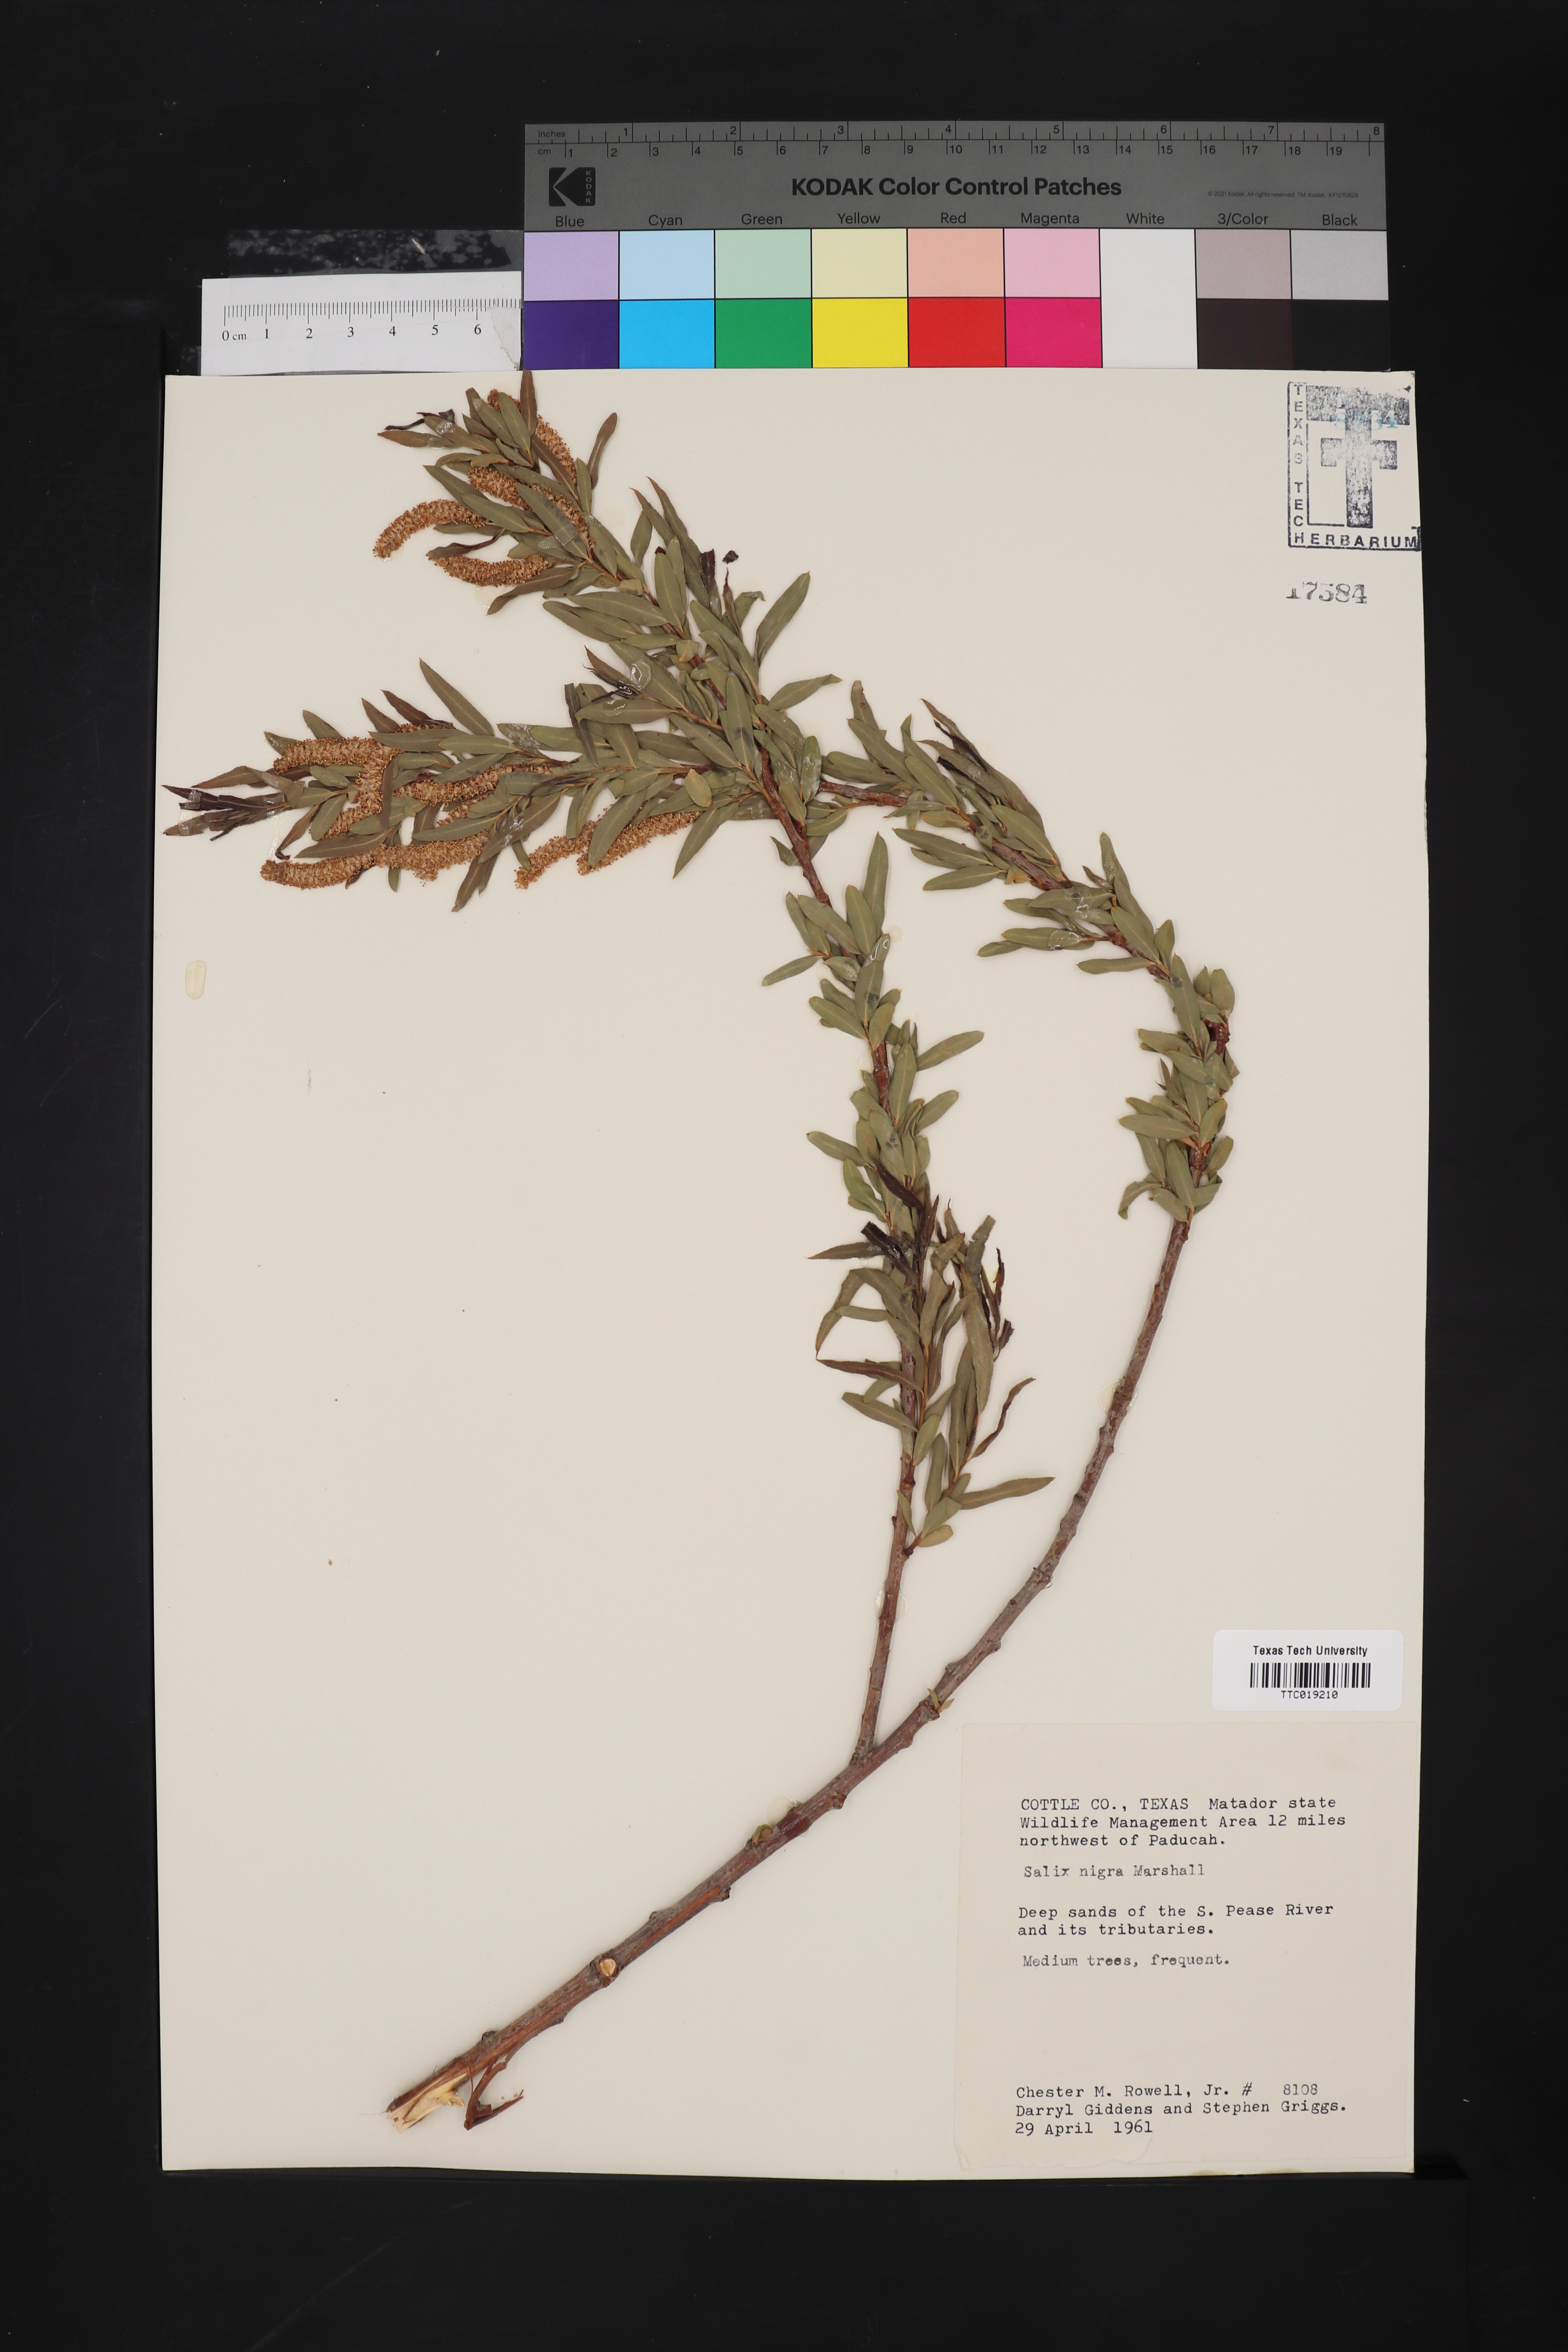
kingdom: Plantae
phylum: Tracheophyta
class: Magnoliopsida
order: Malpighiales
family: Salicaceae
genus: Salix
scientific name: Salix nigra
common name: Black willow
